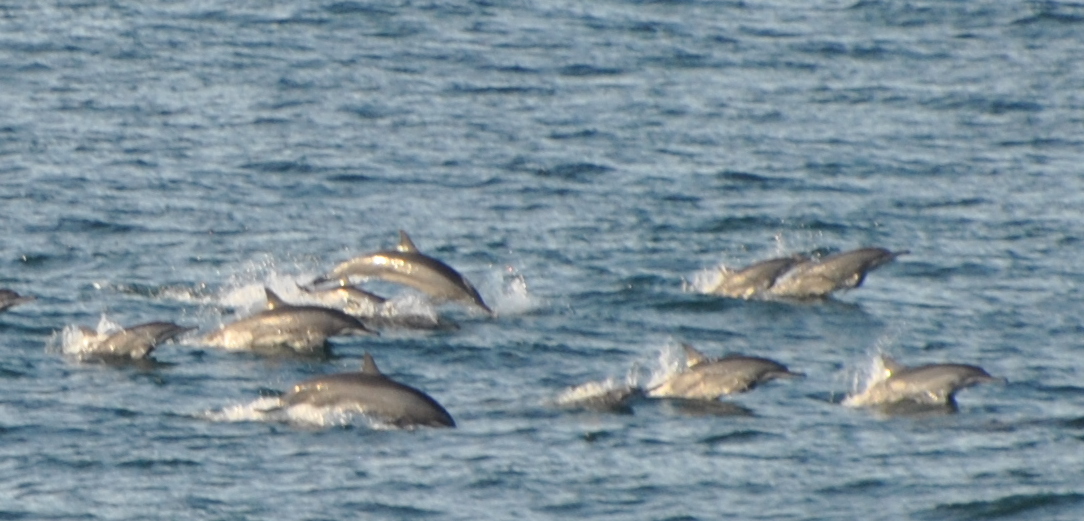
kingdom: Animalia
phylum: Chordata
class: Mammalia
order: Cetacea
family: Delphinidae
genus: Stenella
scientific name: Stenella longirostris
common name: Spinner Dolphin
